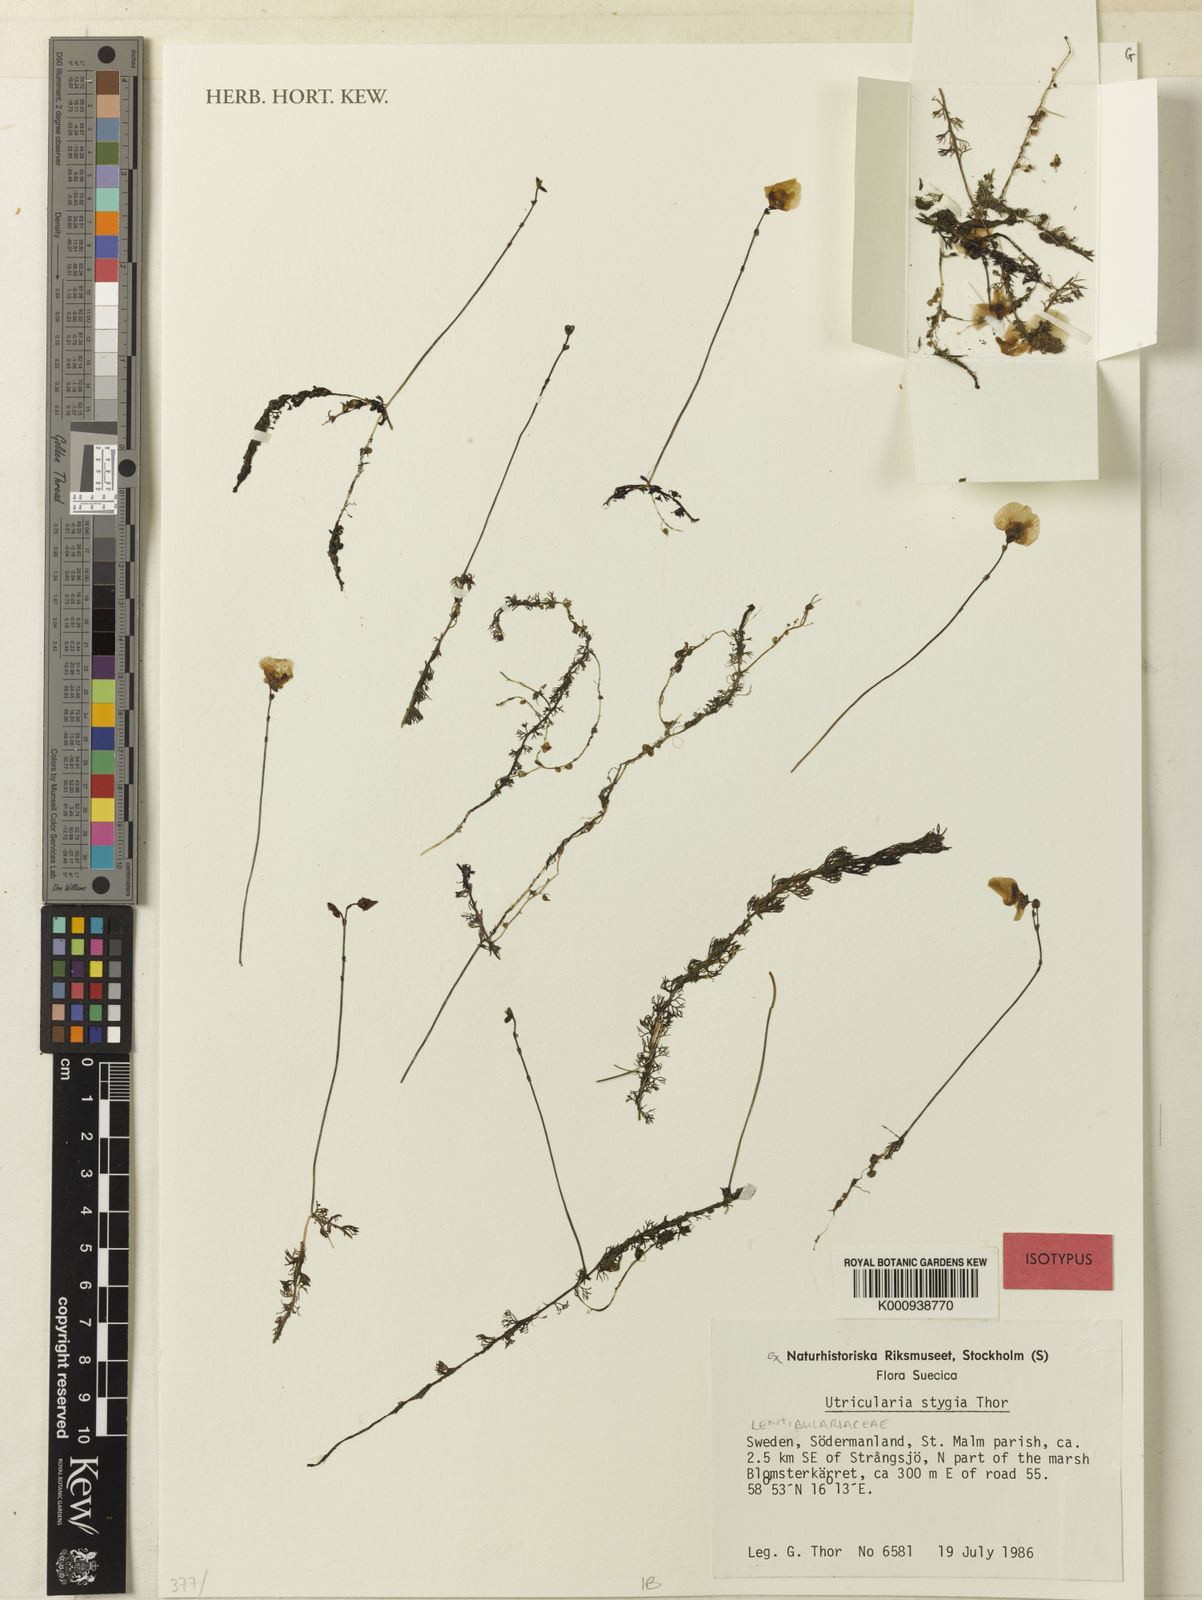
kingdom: Plantae
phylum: Tracheophyta
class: Magnoliopsida
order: Lamiales
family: Lentibulariaceae
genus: Utricularia
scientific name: Utricularia ochroleuca
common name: Pale bladderwort
